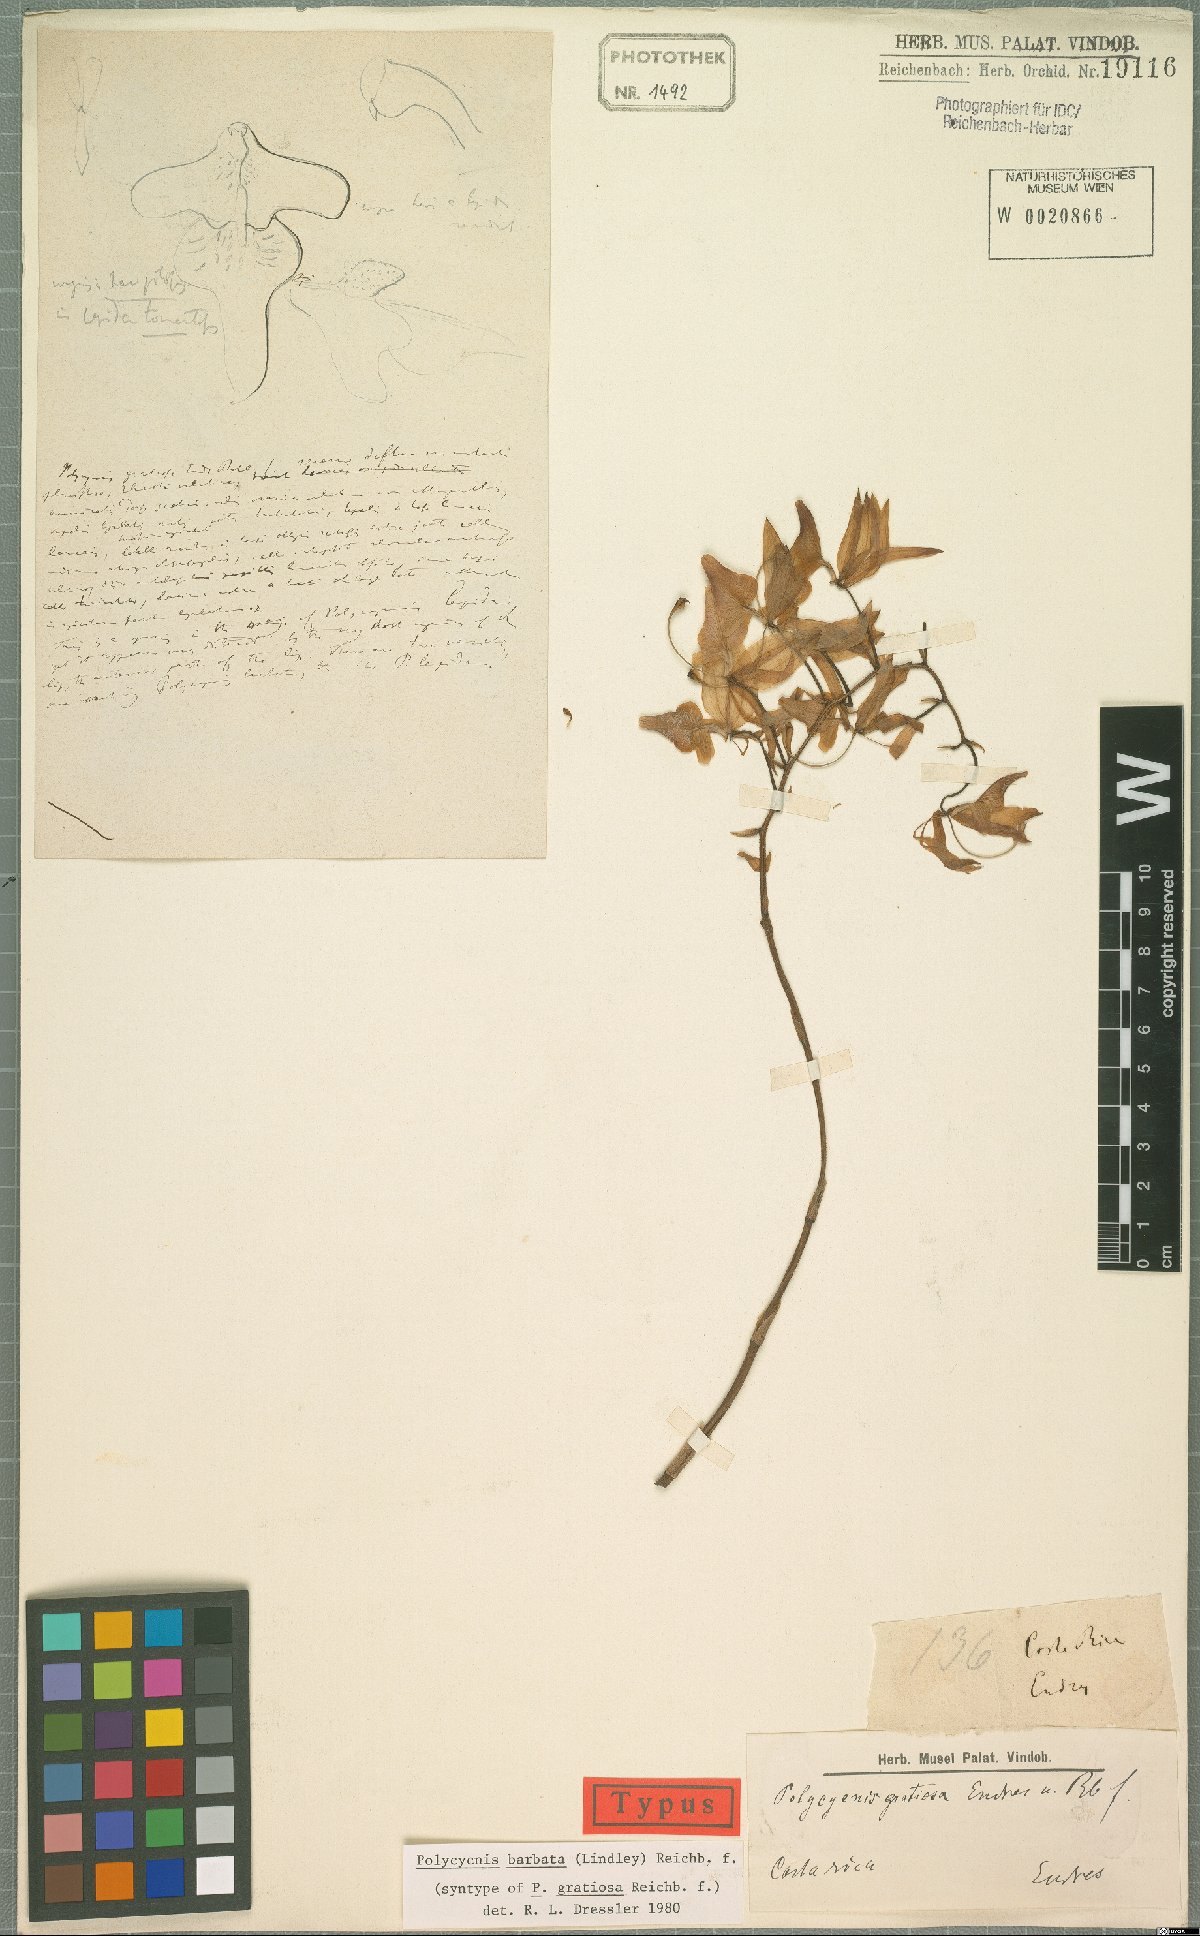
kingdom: Plantae
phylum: Tracheophyta
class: Liliopsida
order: Asparagales
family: Orchidaceae
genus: Polycycnis
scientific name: Polycycnis lepida
